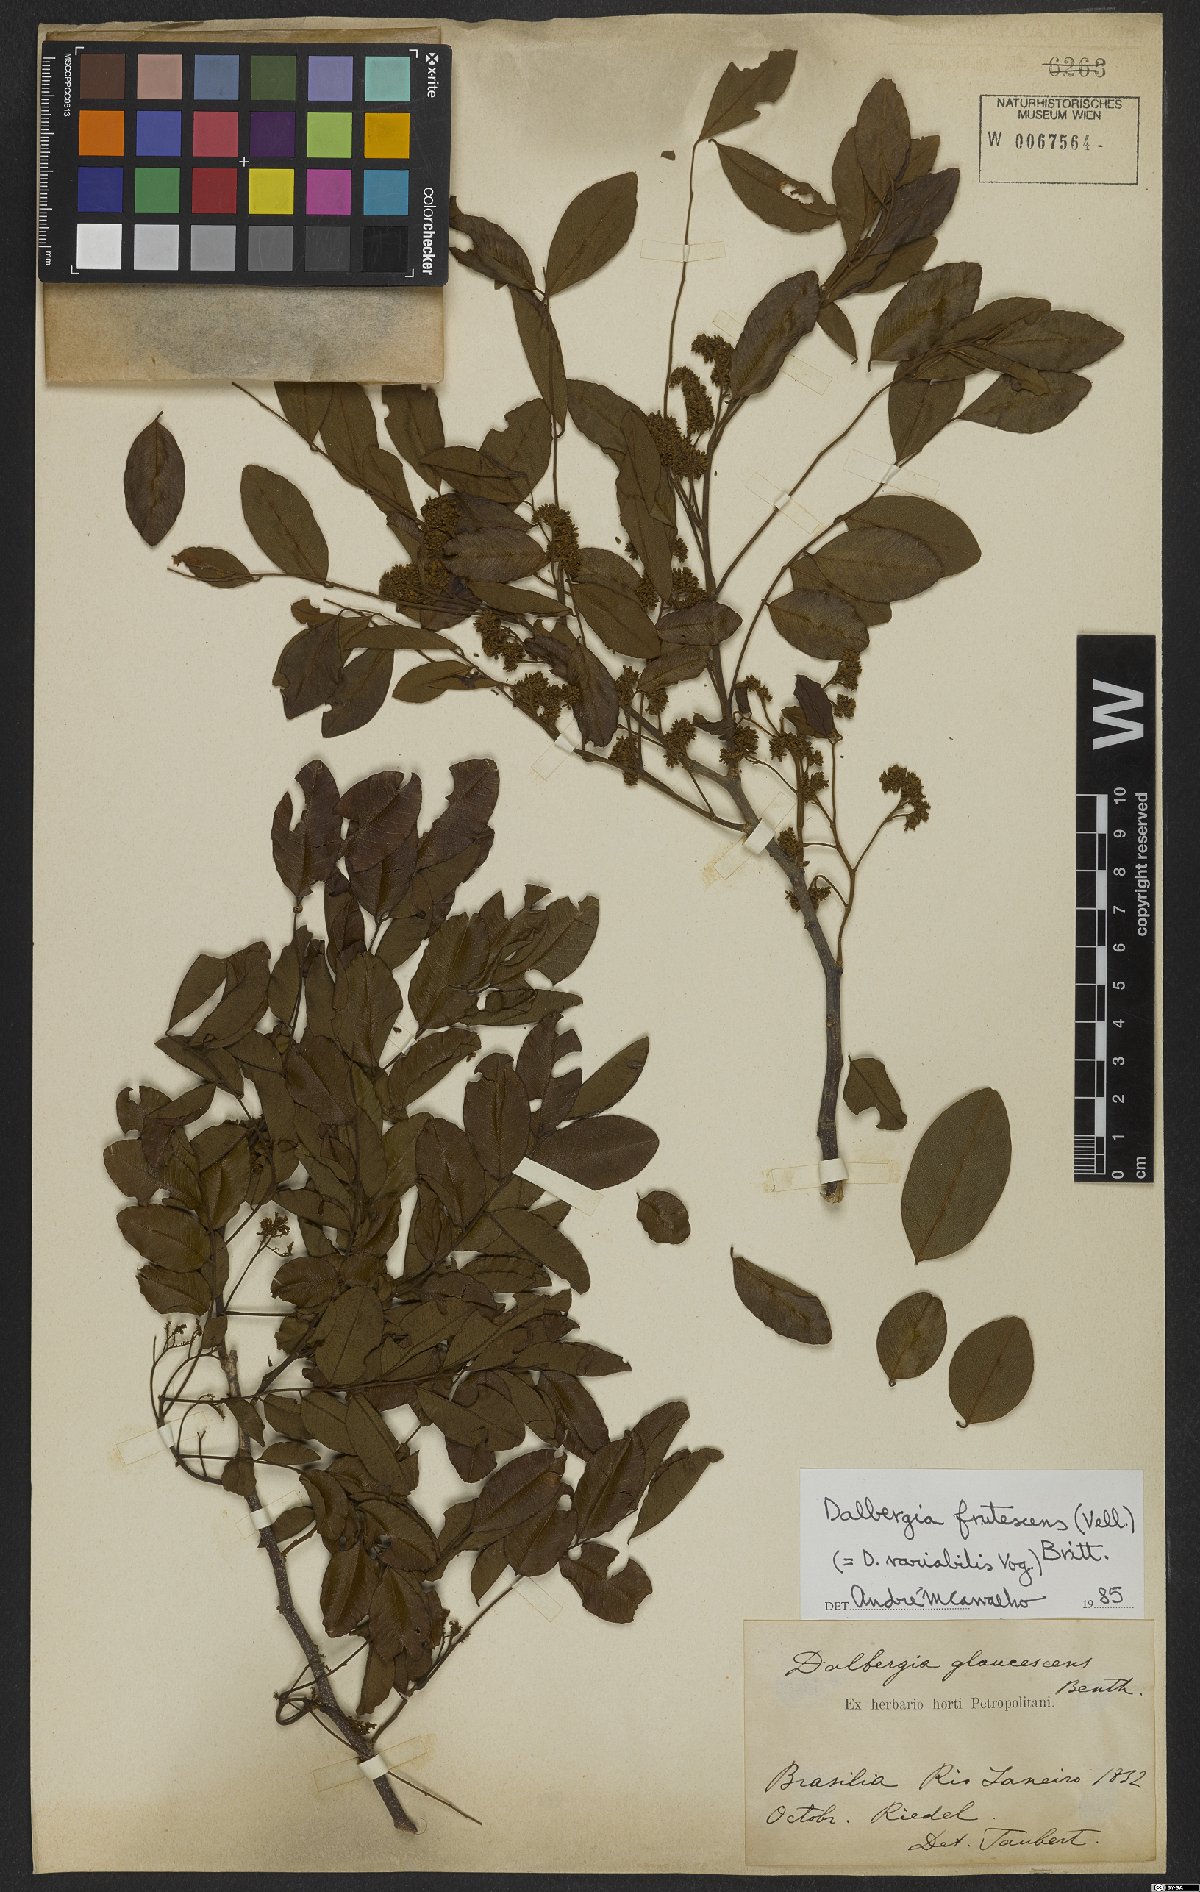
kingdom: Plantae
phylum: Tracheophyta
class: Magnoliopsida
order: Fabales
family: Fabaceae
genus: Dalbergia
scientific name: Dalbergia frutescens
